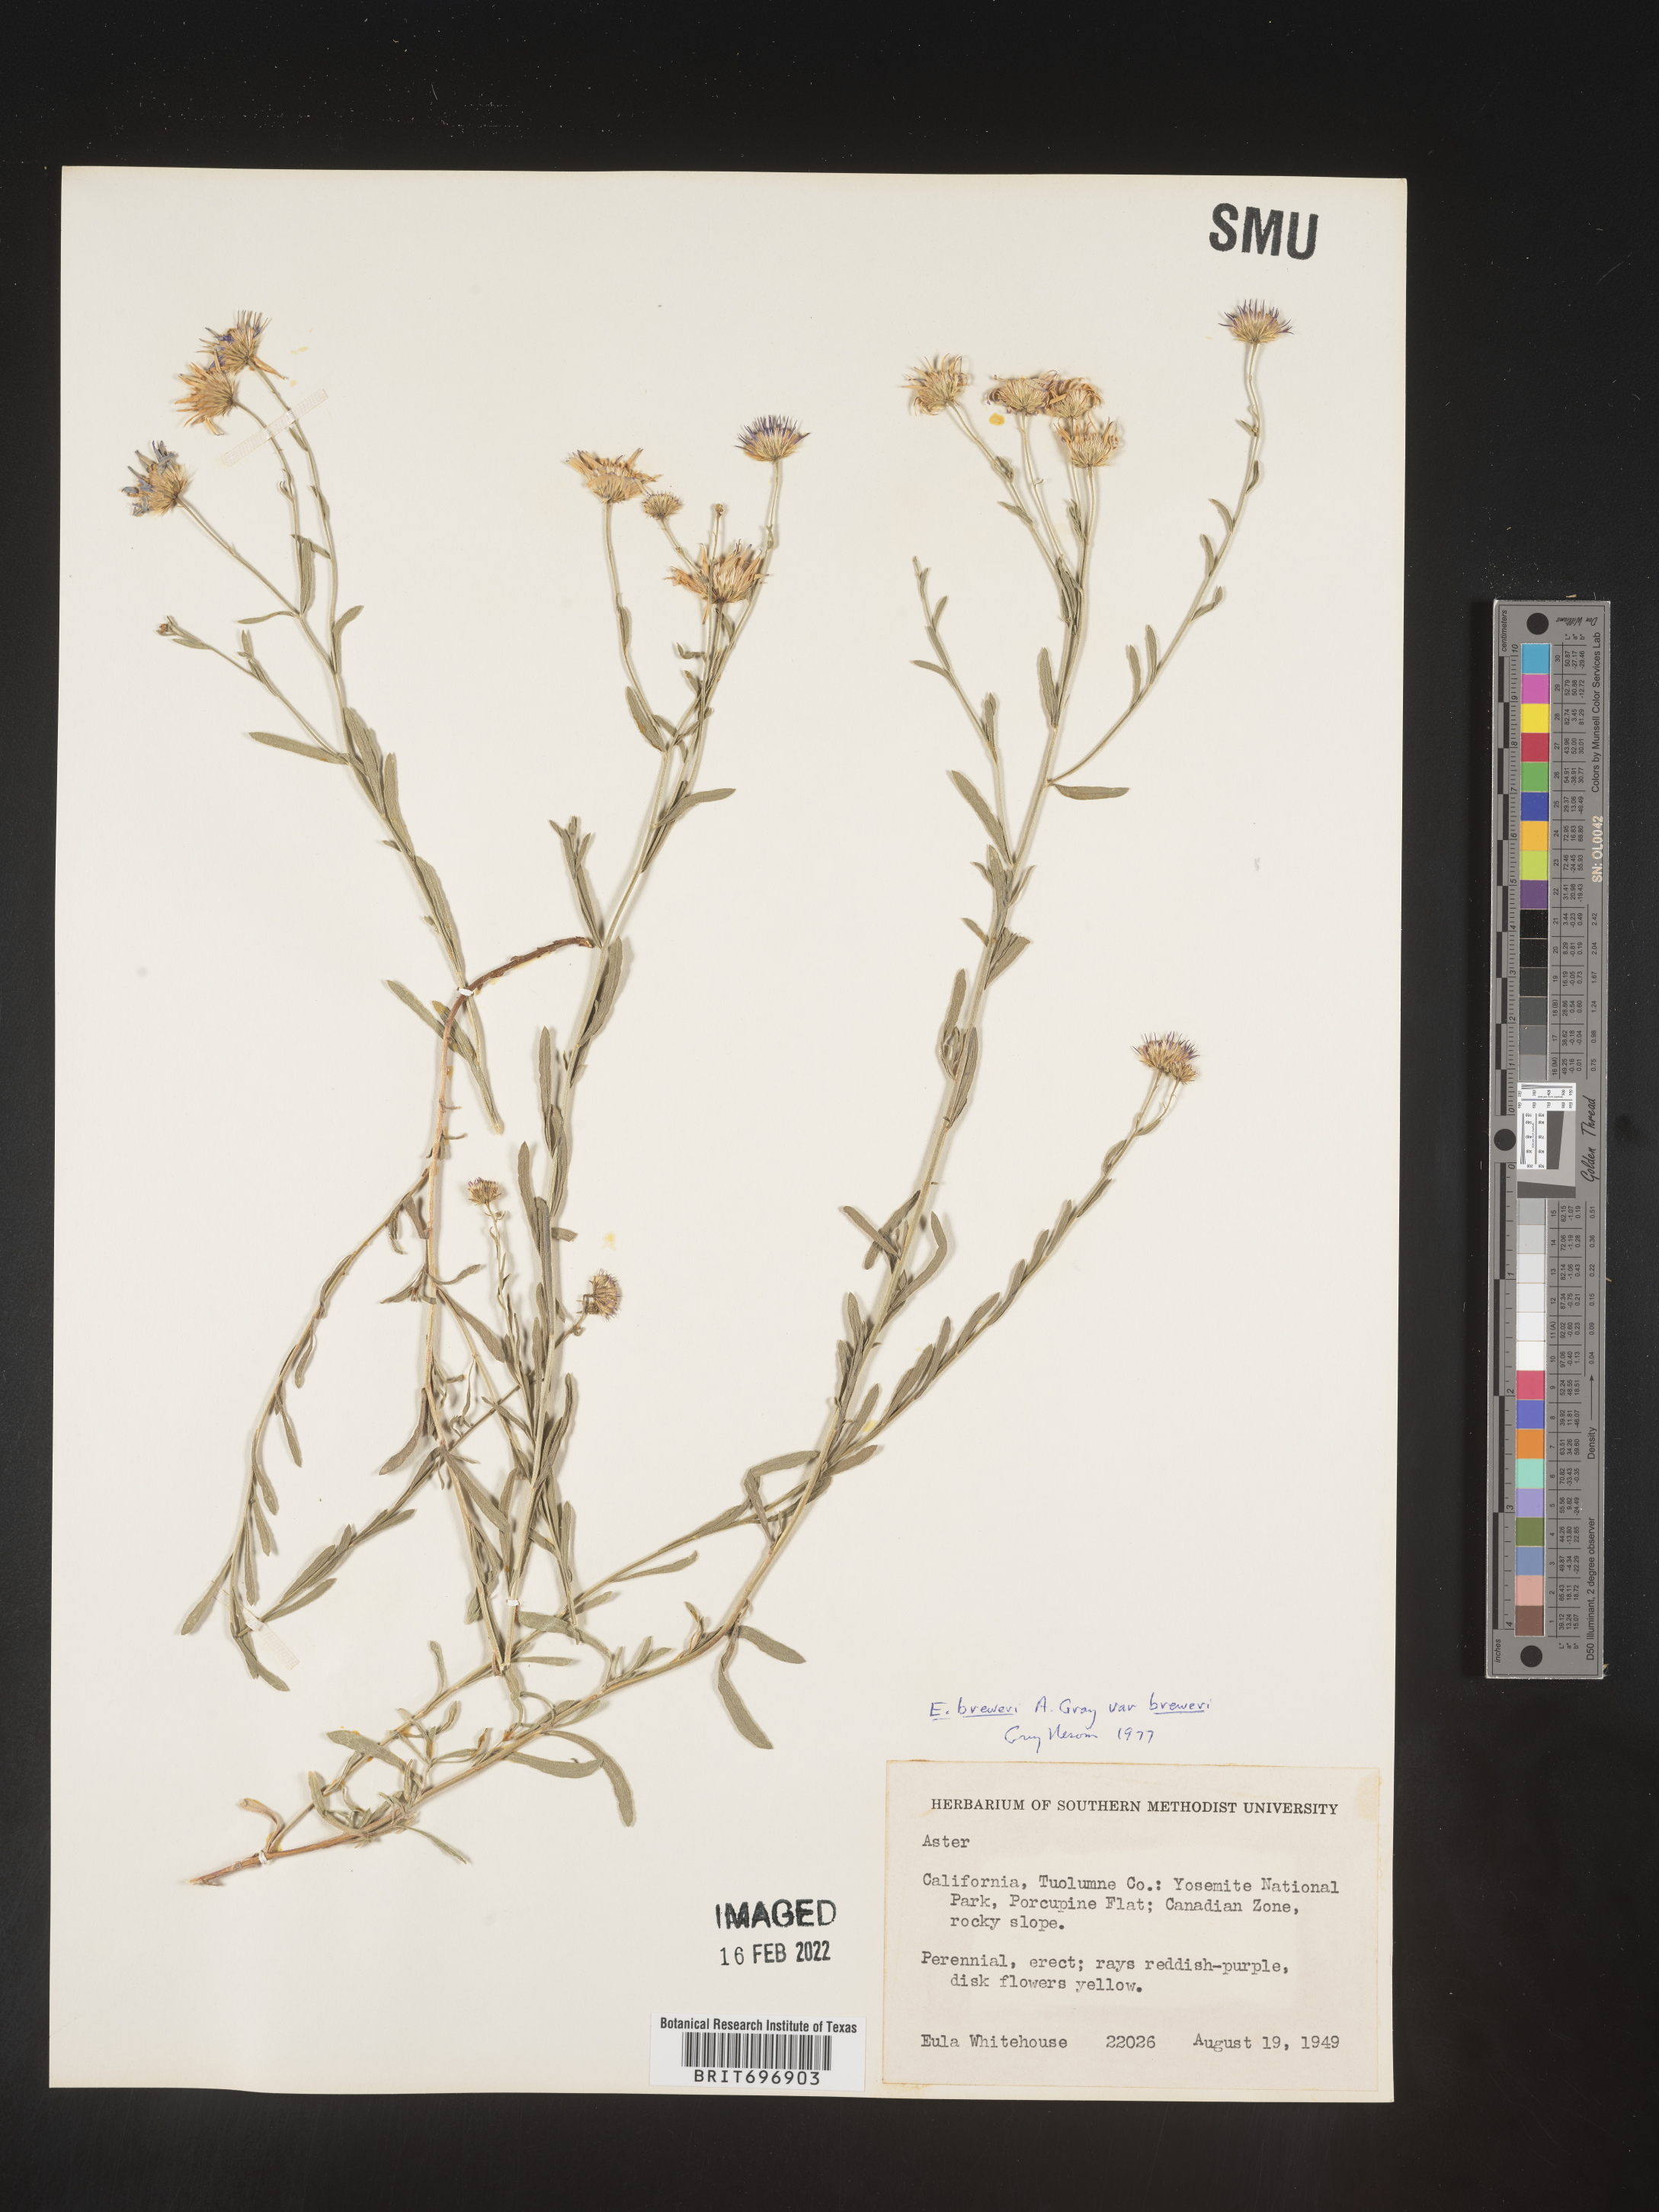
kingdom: Plantae
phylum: Tracheophyta
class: Magnoliopsida
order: Asterales
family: Asteraceae
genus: Erigeron
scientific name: Erigeron breweri
